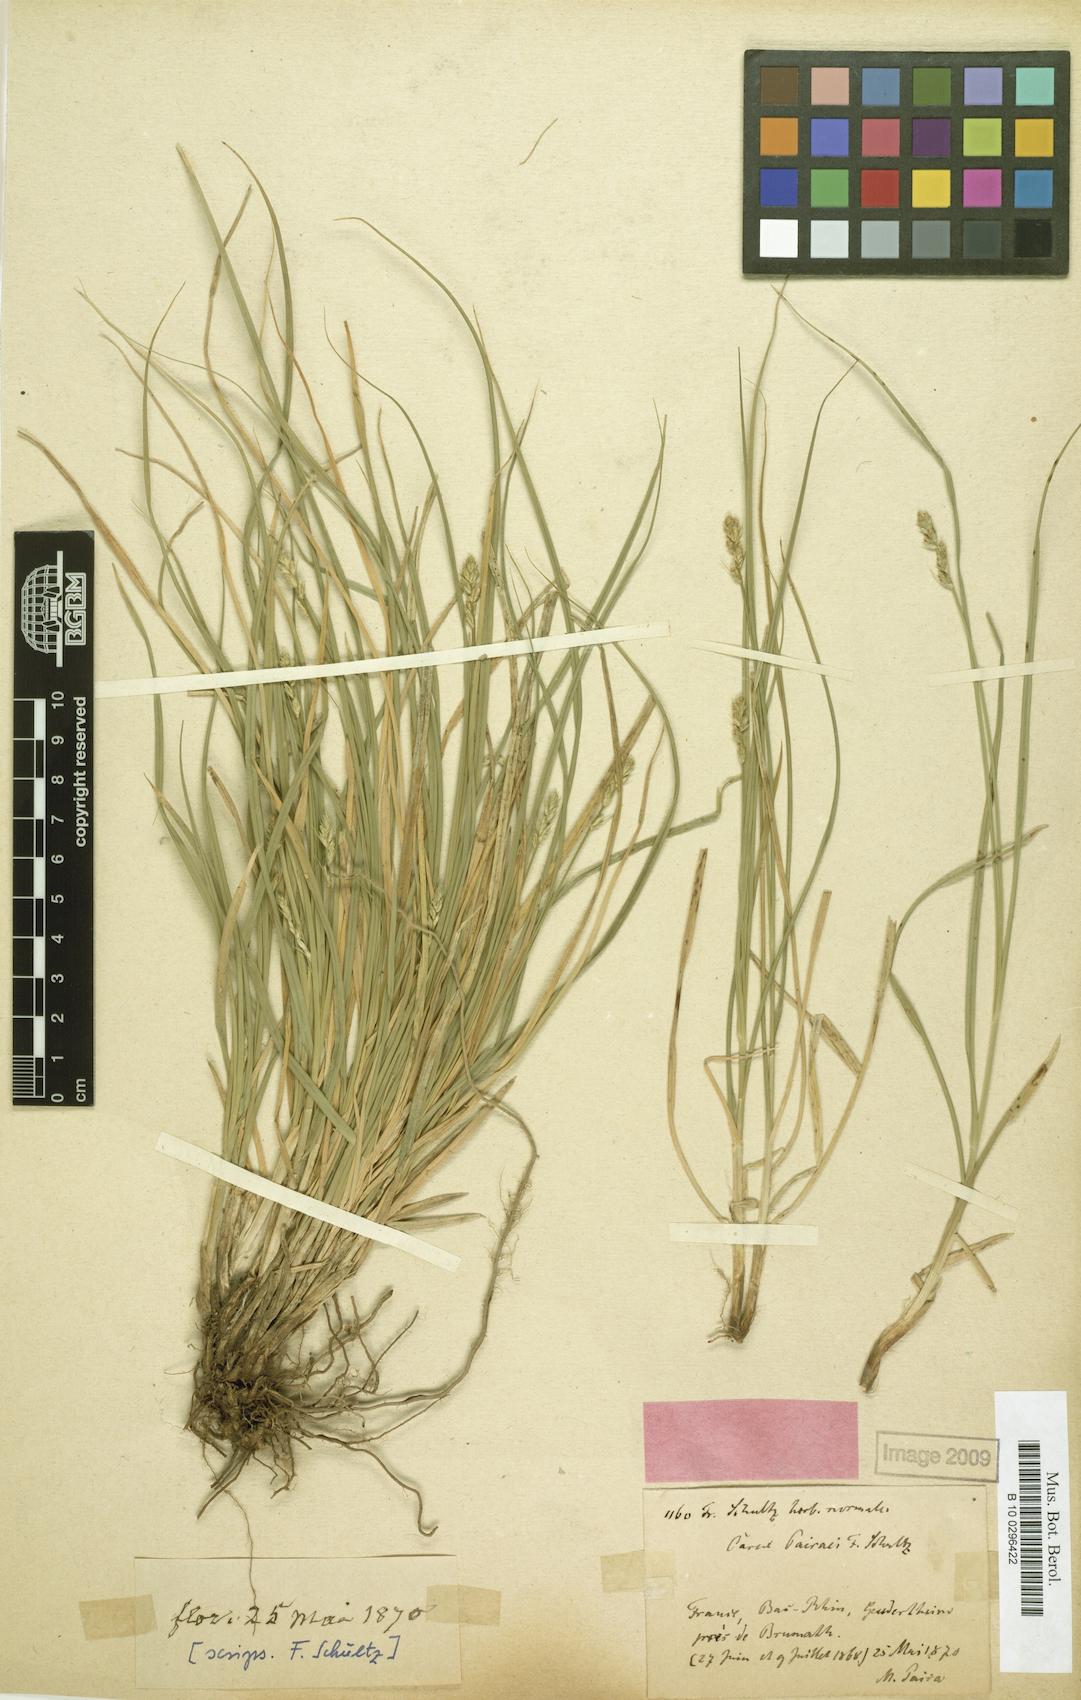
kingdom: Plantae
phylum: Tracheophyta
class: Liliopsida
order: Poales
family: Cyperaceae
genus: Carex
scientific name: Carex pairae
